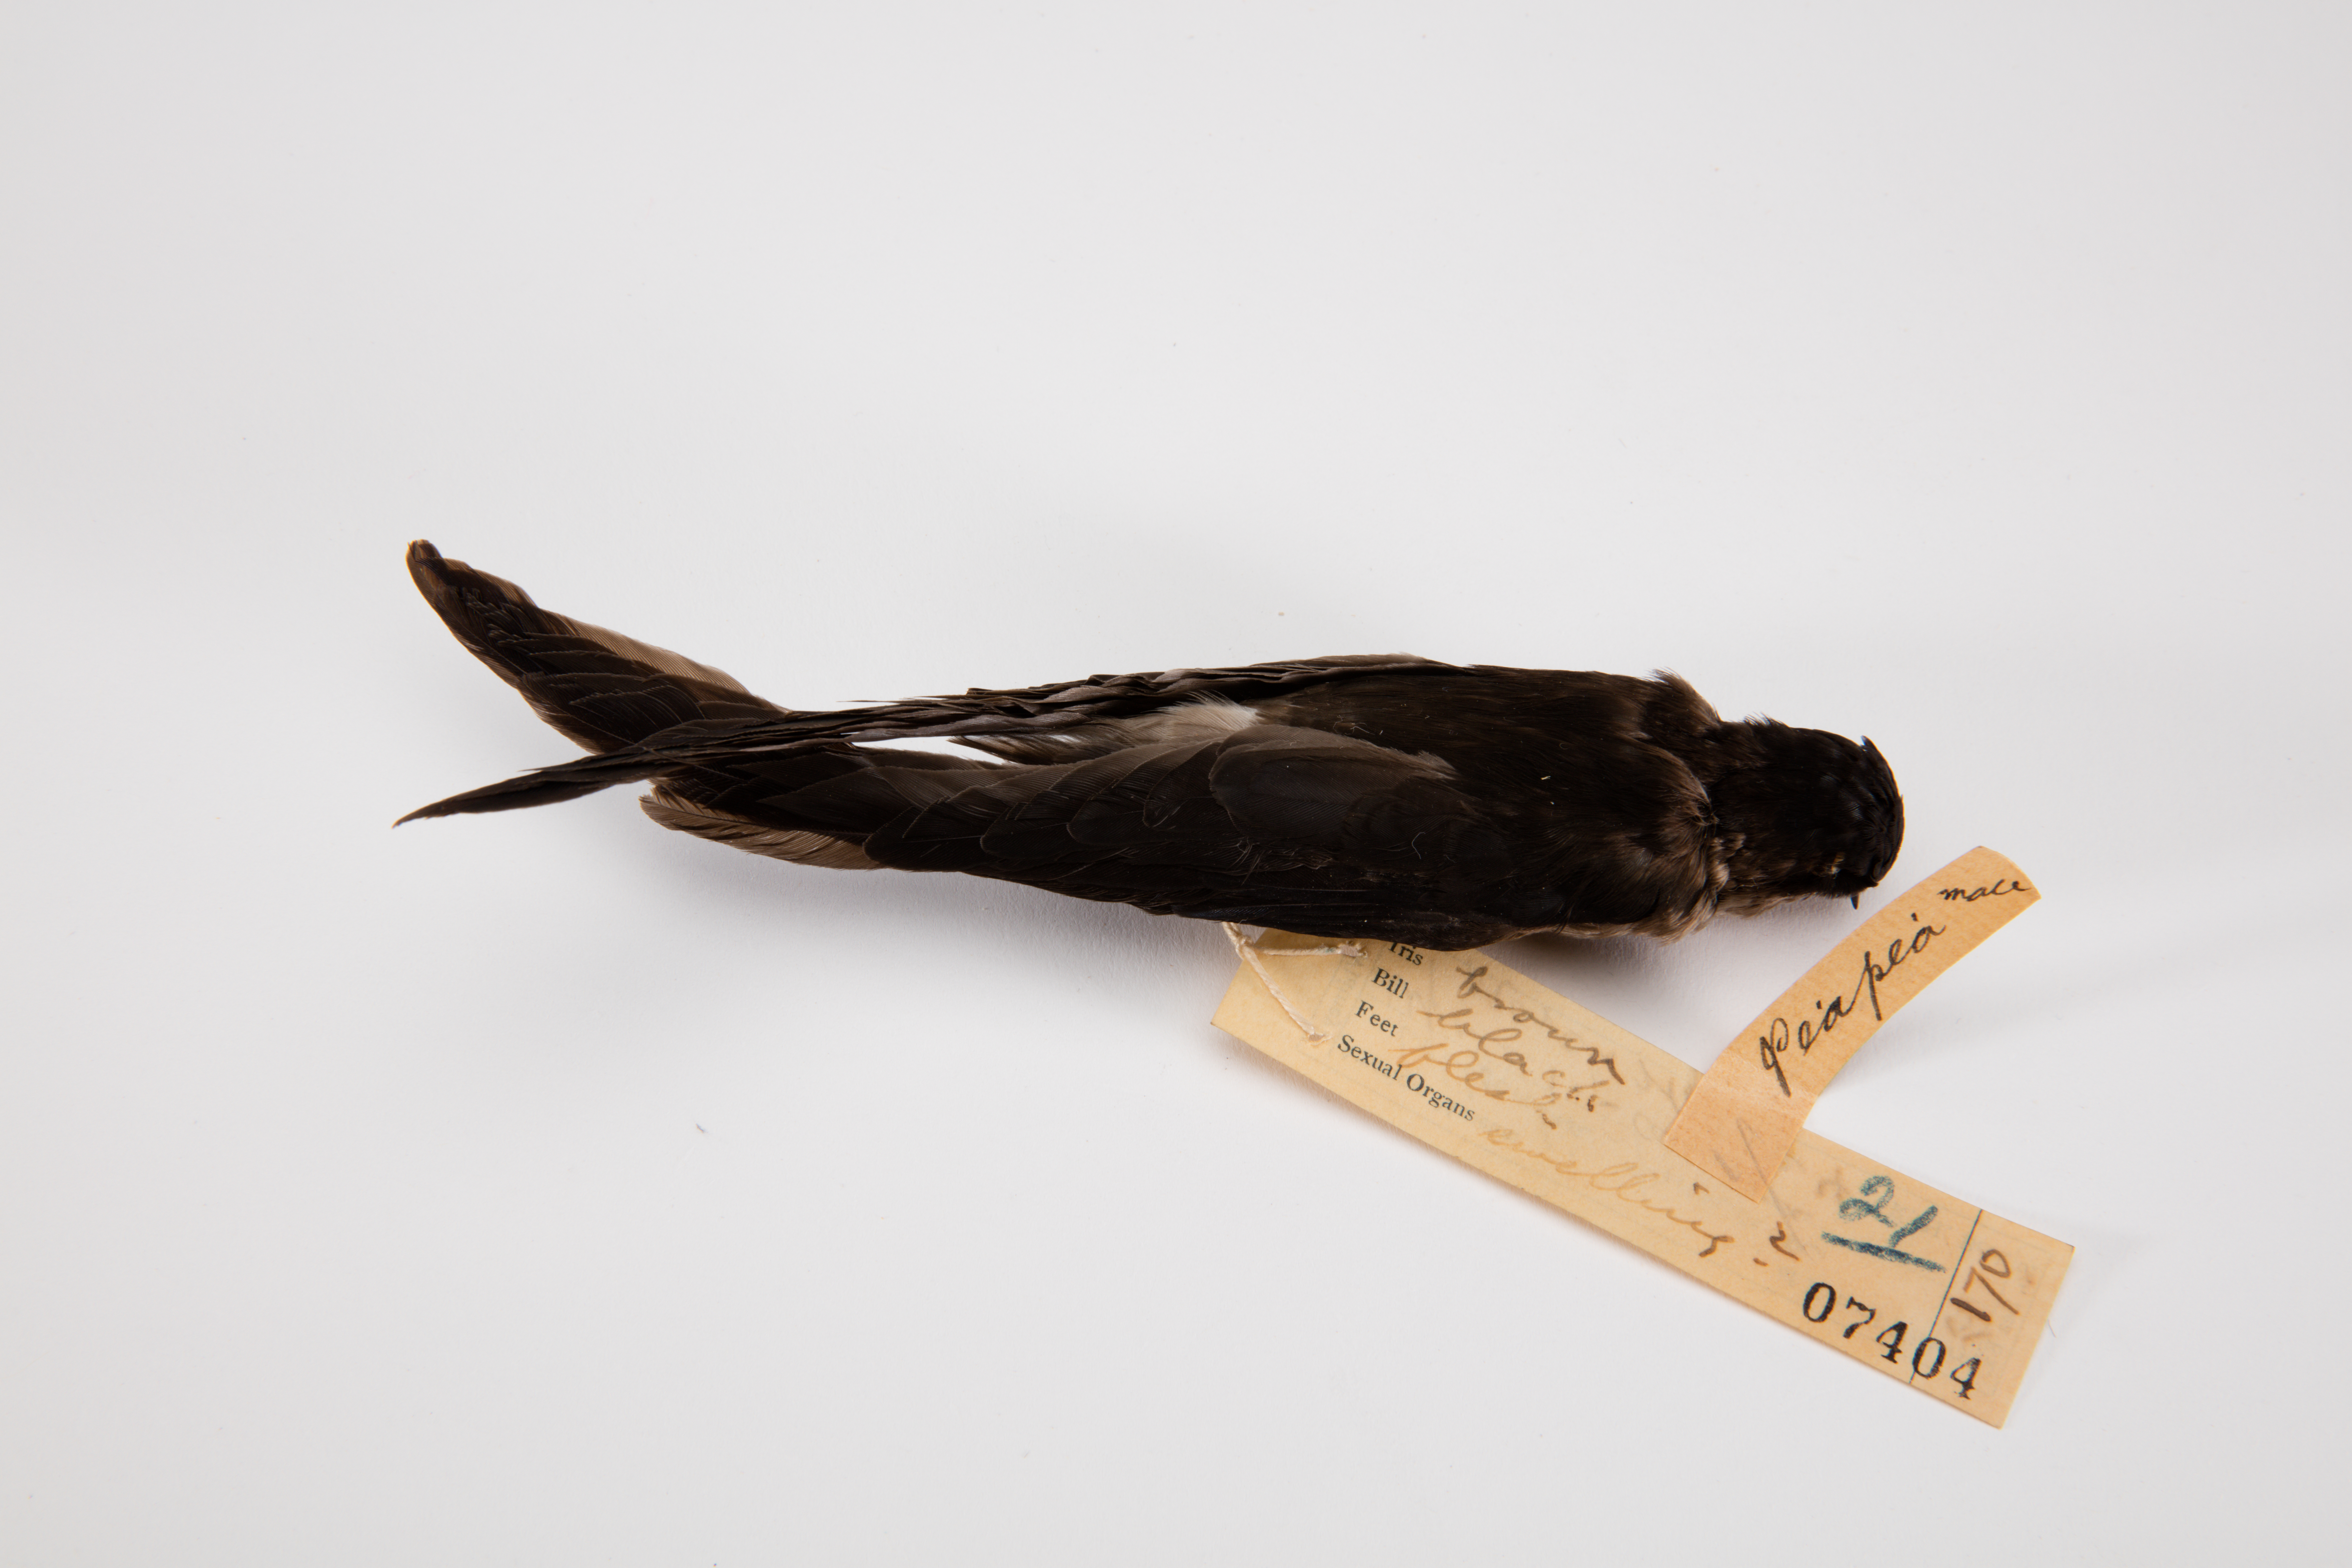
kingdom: Animalia
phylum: Chordata
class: Aves
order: Apodiformes
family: Apodidae
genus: Aerodramus
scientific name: Aerodramus spodiopygius
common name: White-rumped swiftlet
